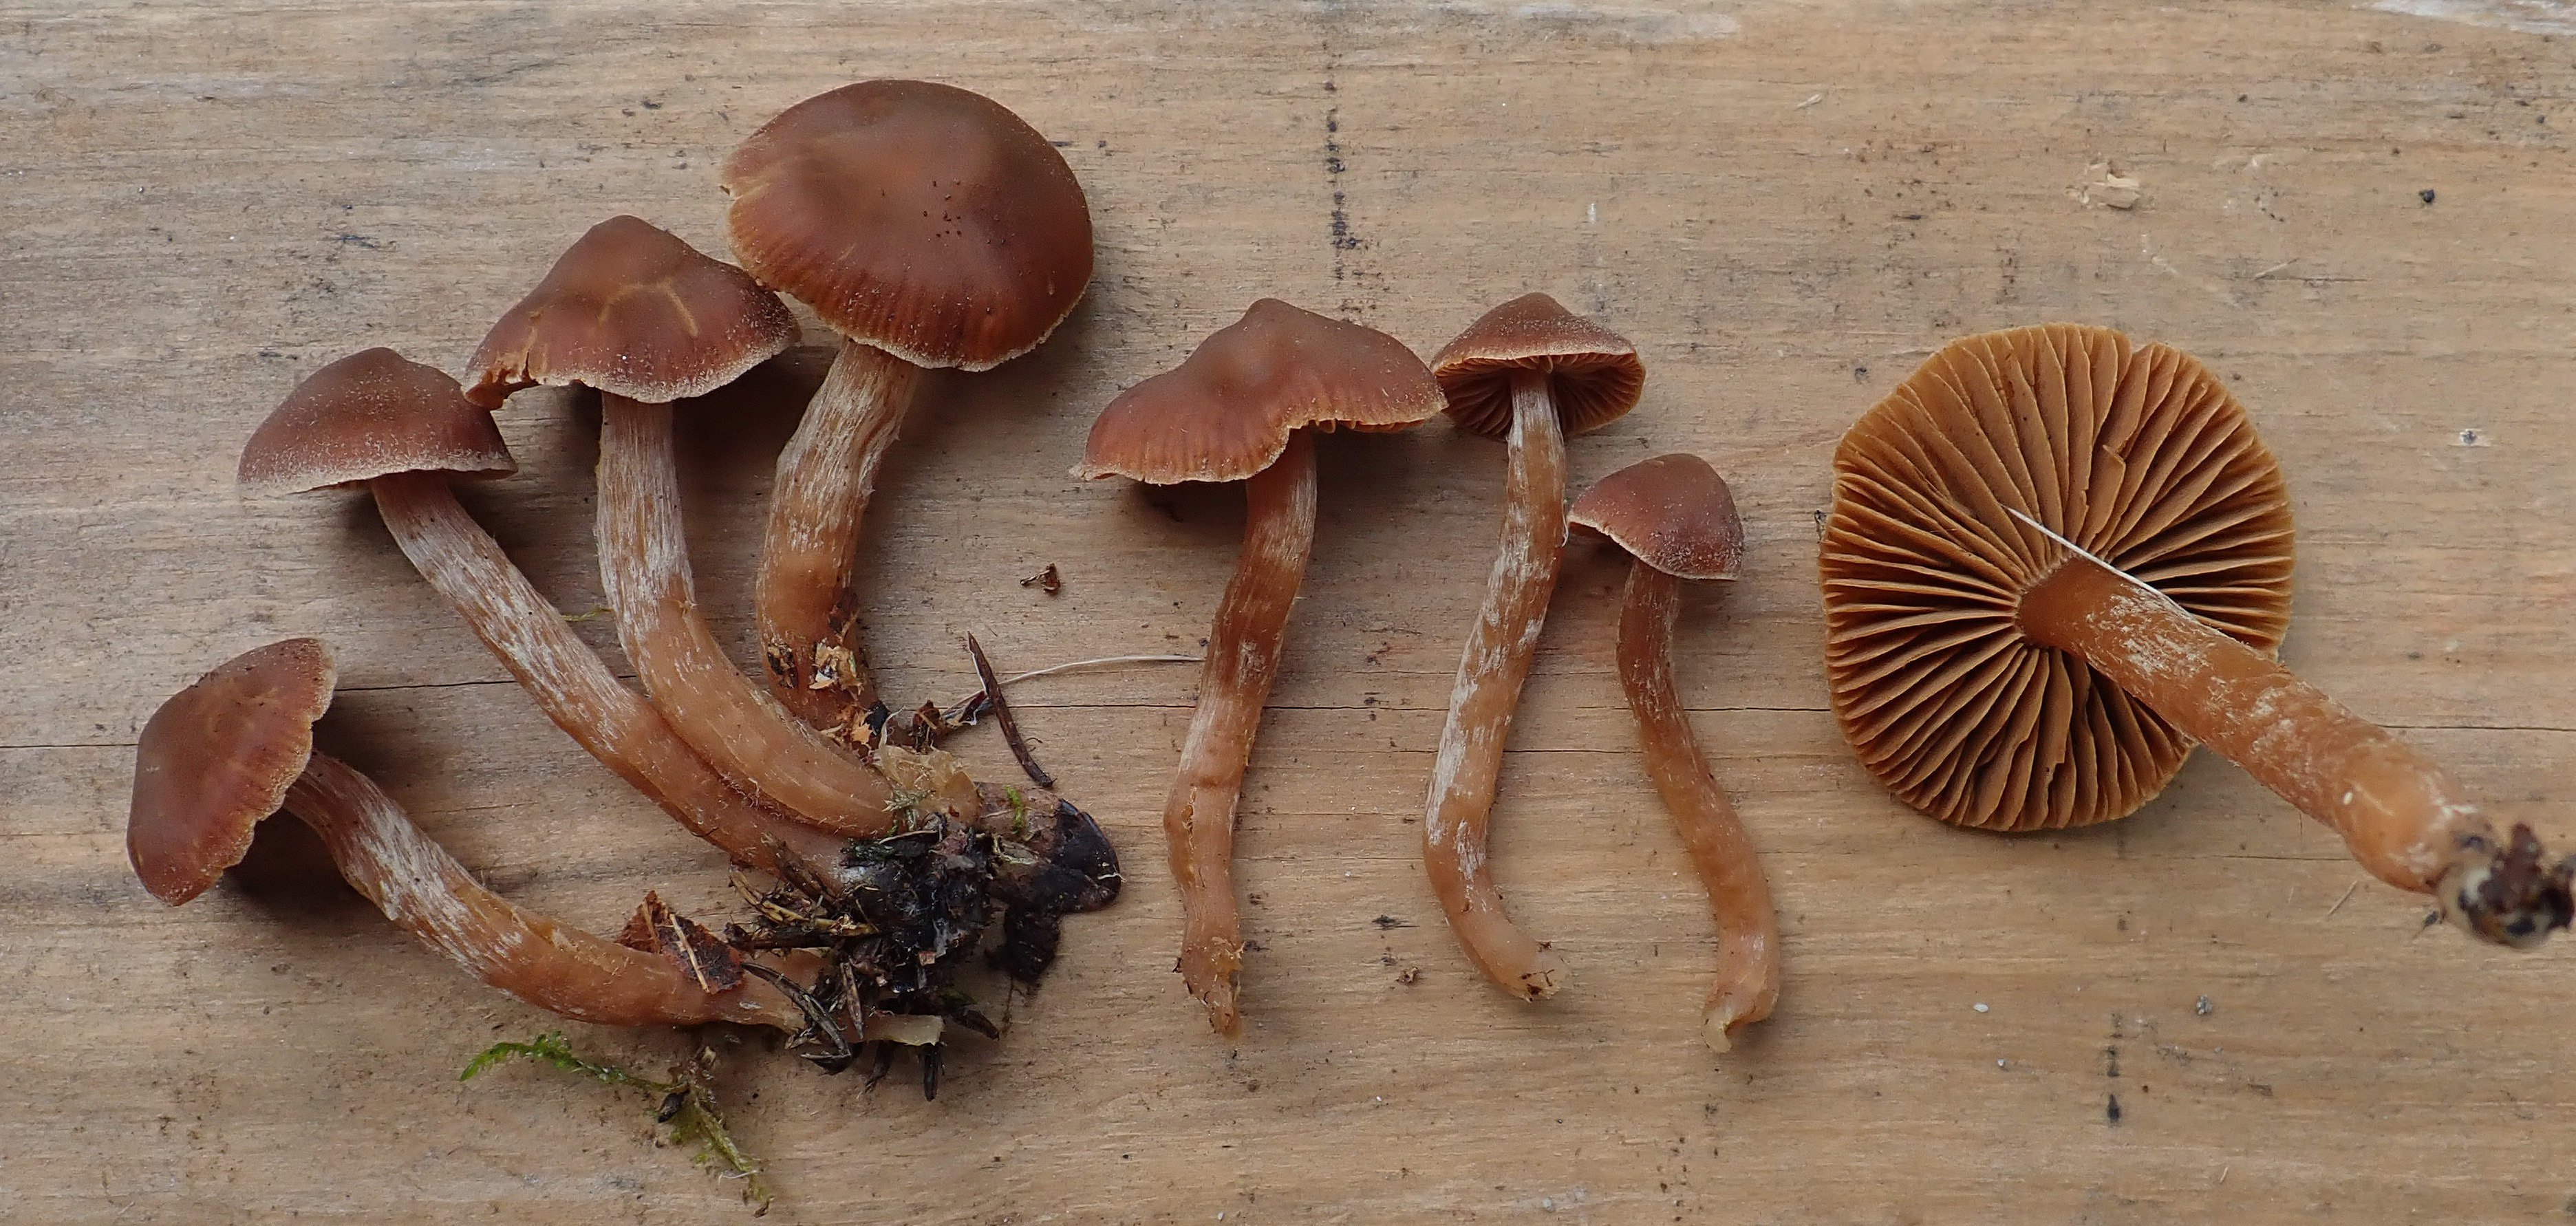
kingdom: Fungi
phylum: Basidiomycota
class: Agaricomycetes
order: Agaricales
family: Cortinariaceae
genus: Cortinarius
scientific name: Cortinarius obtusus
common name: Blunt webcap
